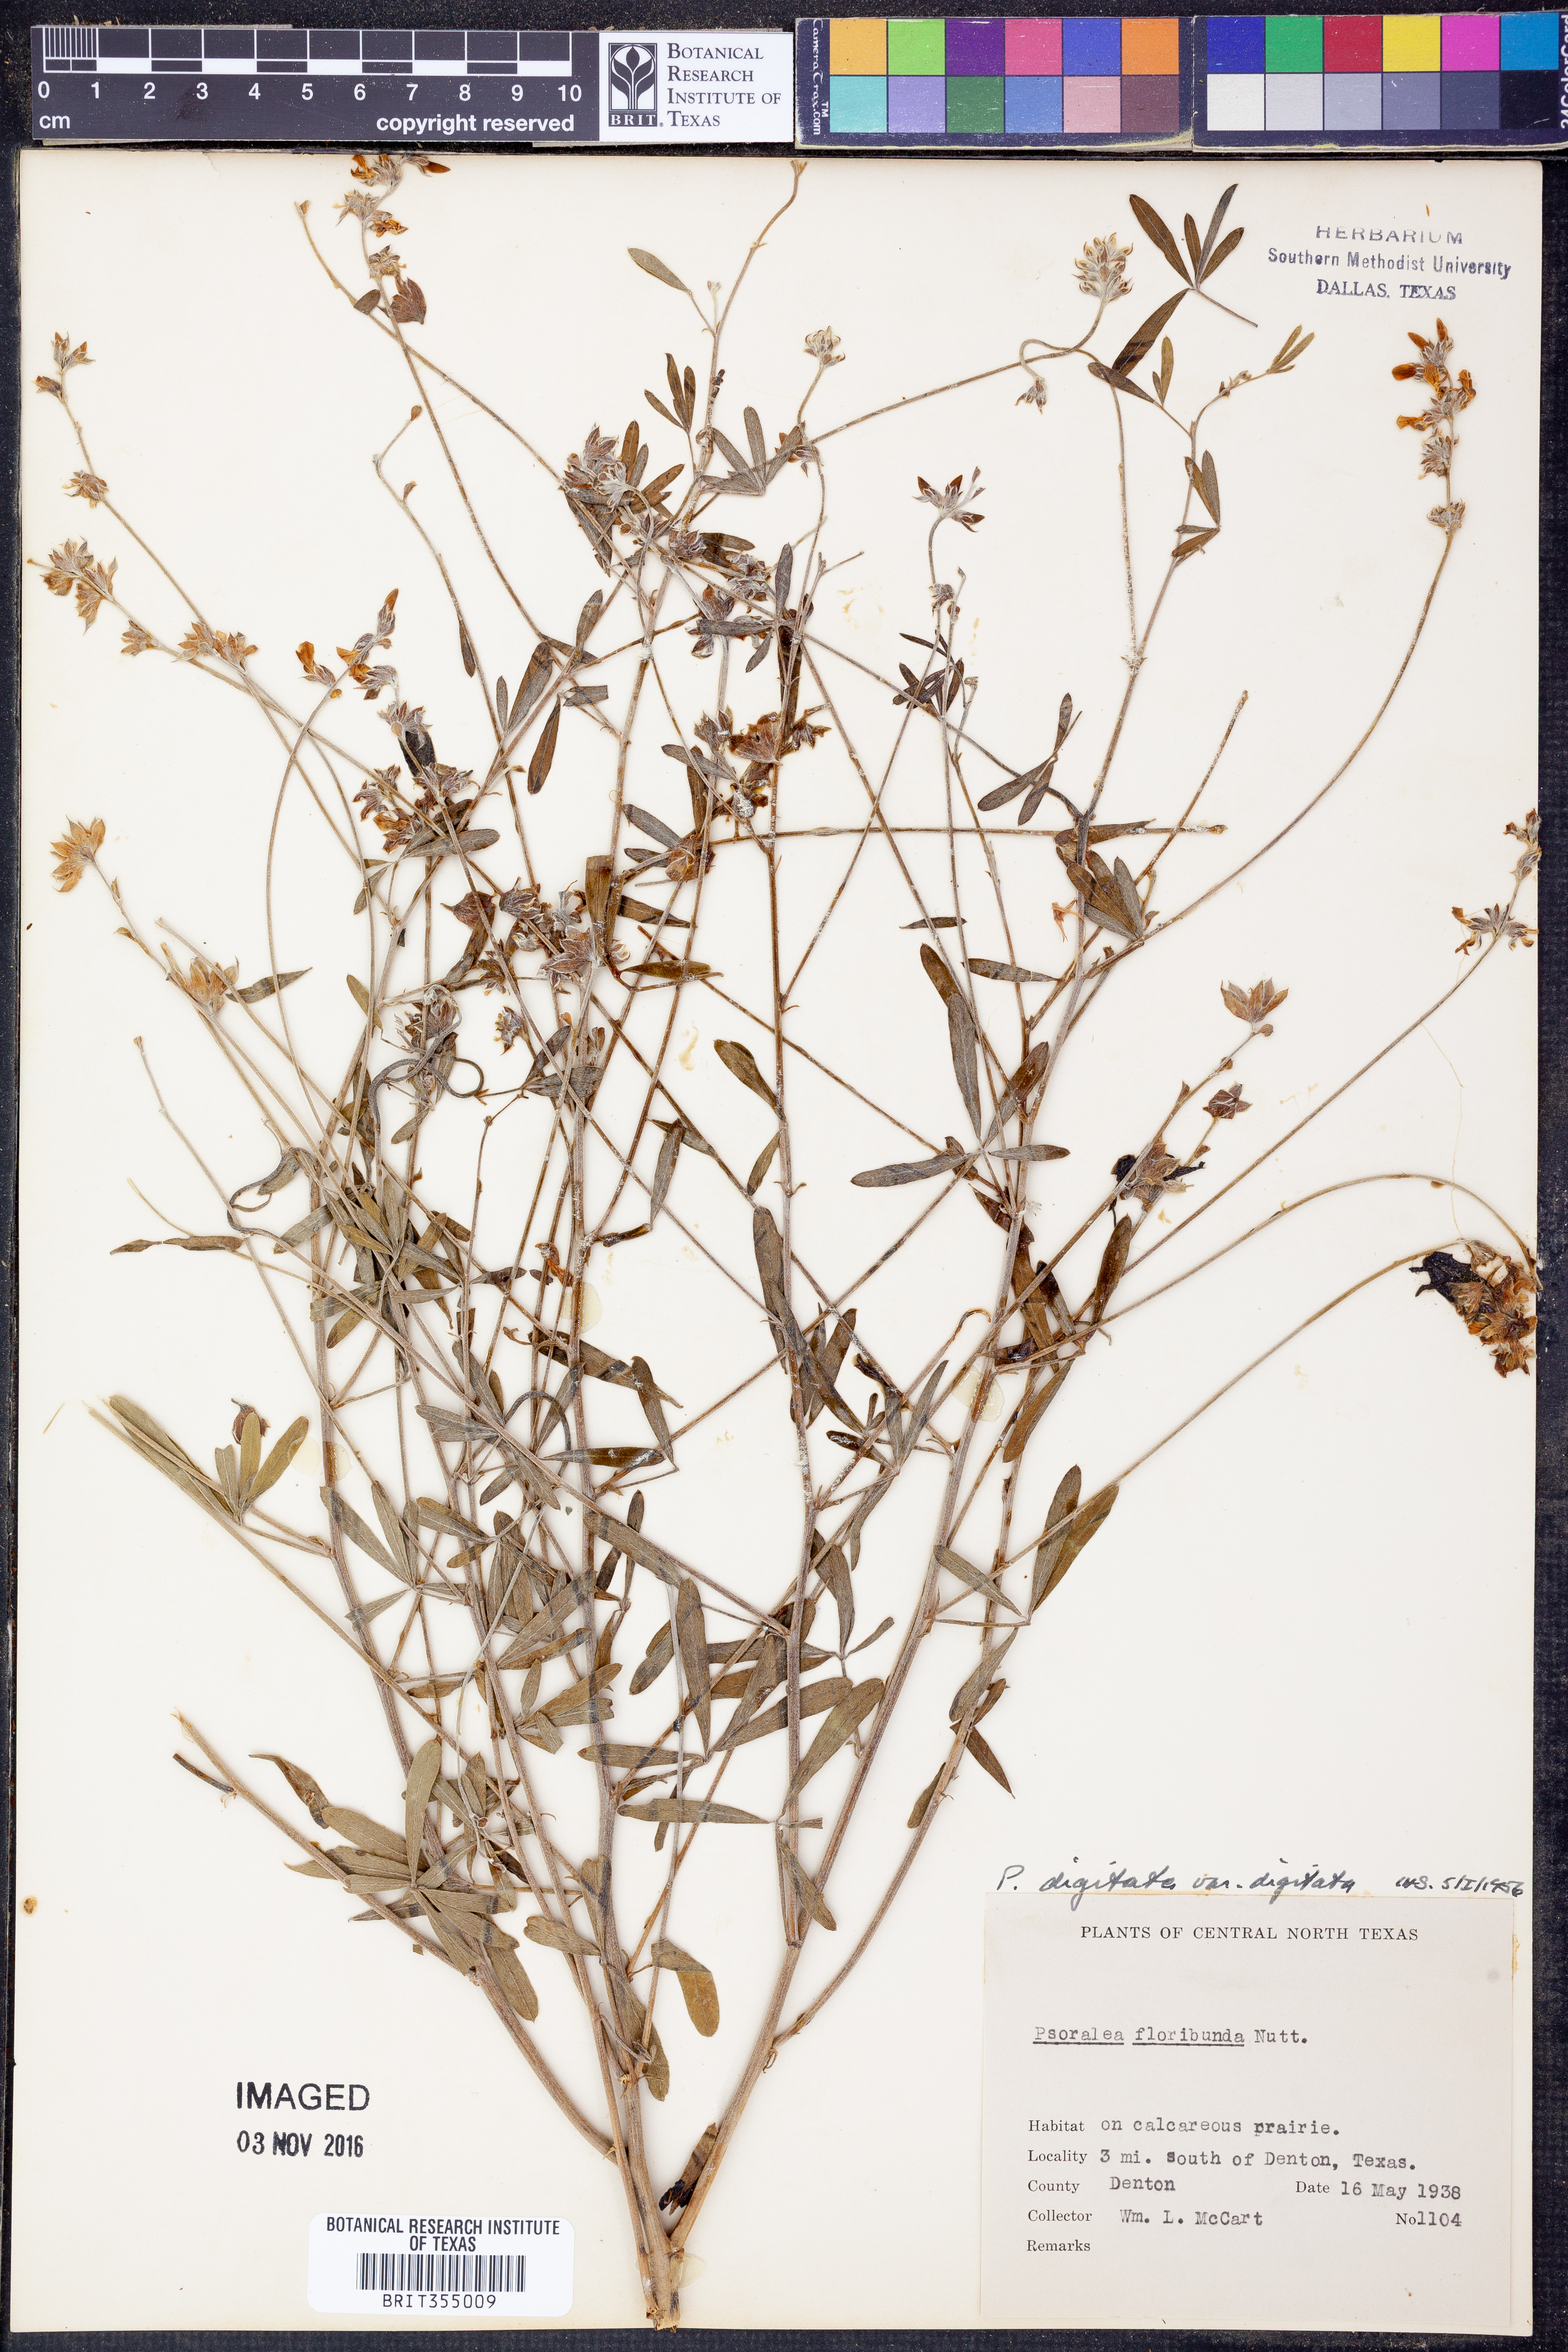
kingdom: Plantae
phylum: Tracheophyta
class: Magnoliopsida
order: Fabales
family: Fabaceae
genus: Pediomelum
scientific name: Pediomelum digitatum
